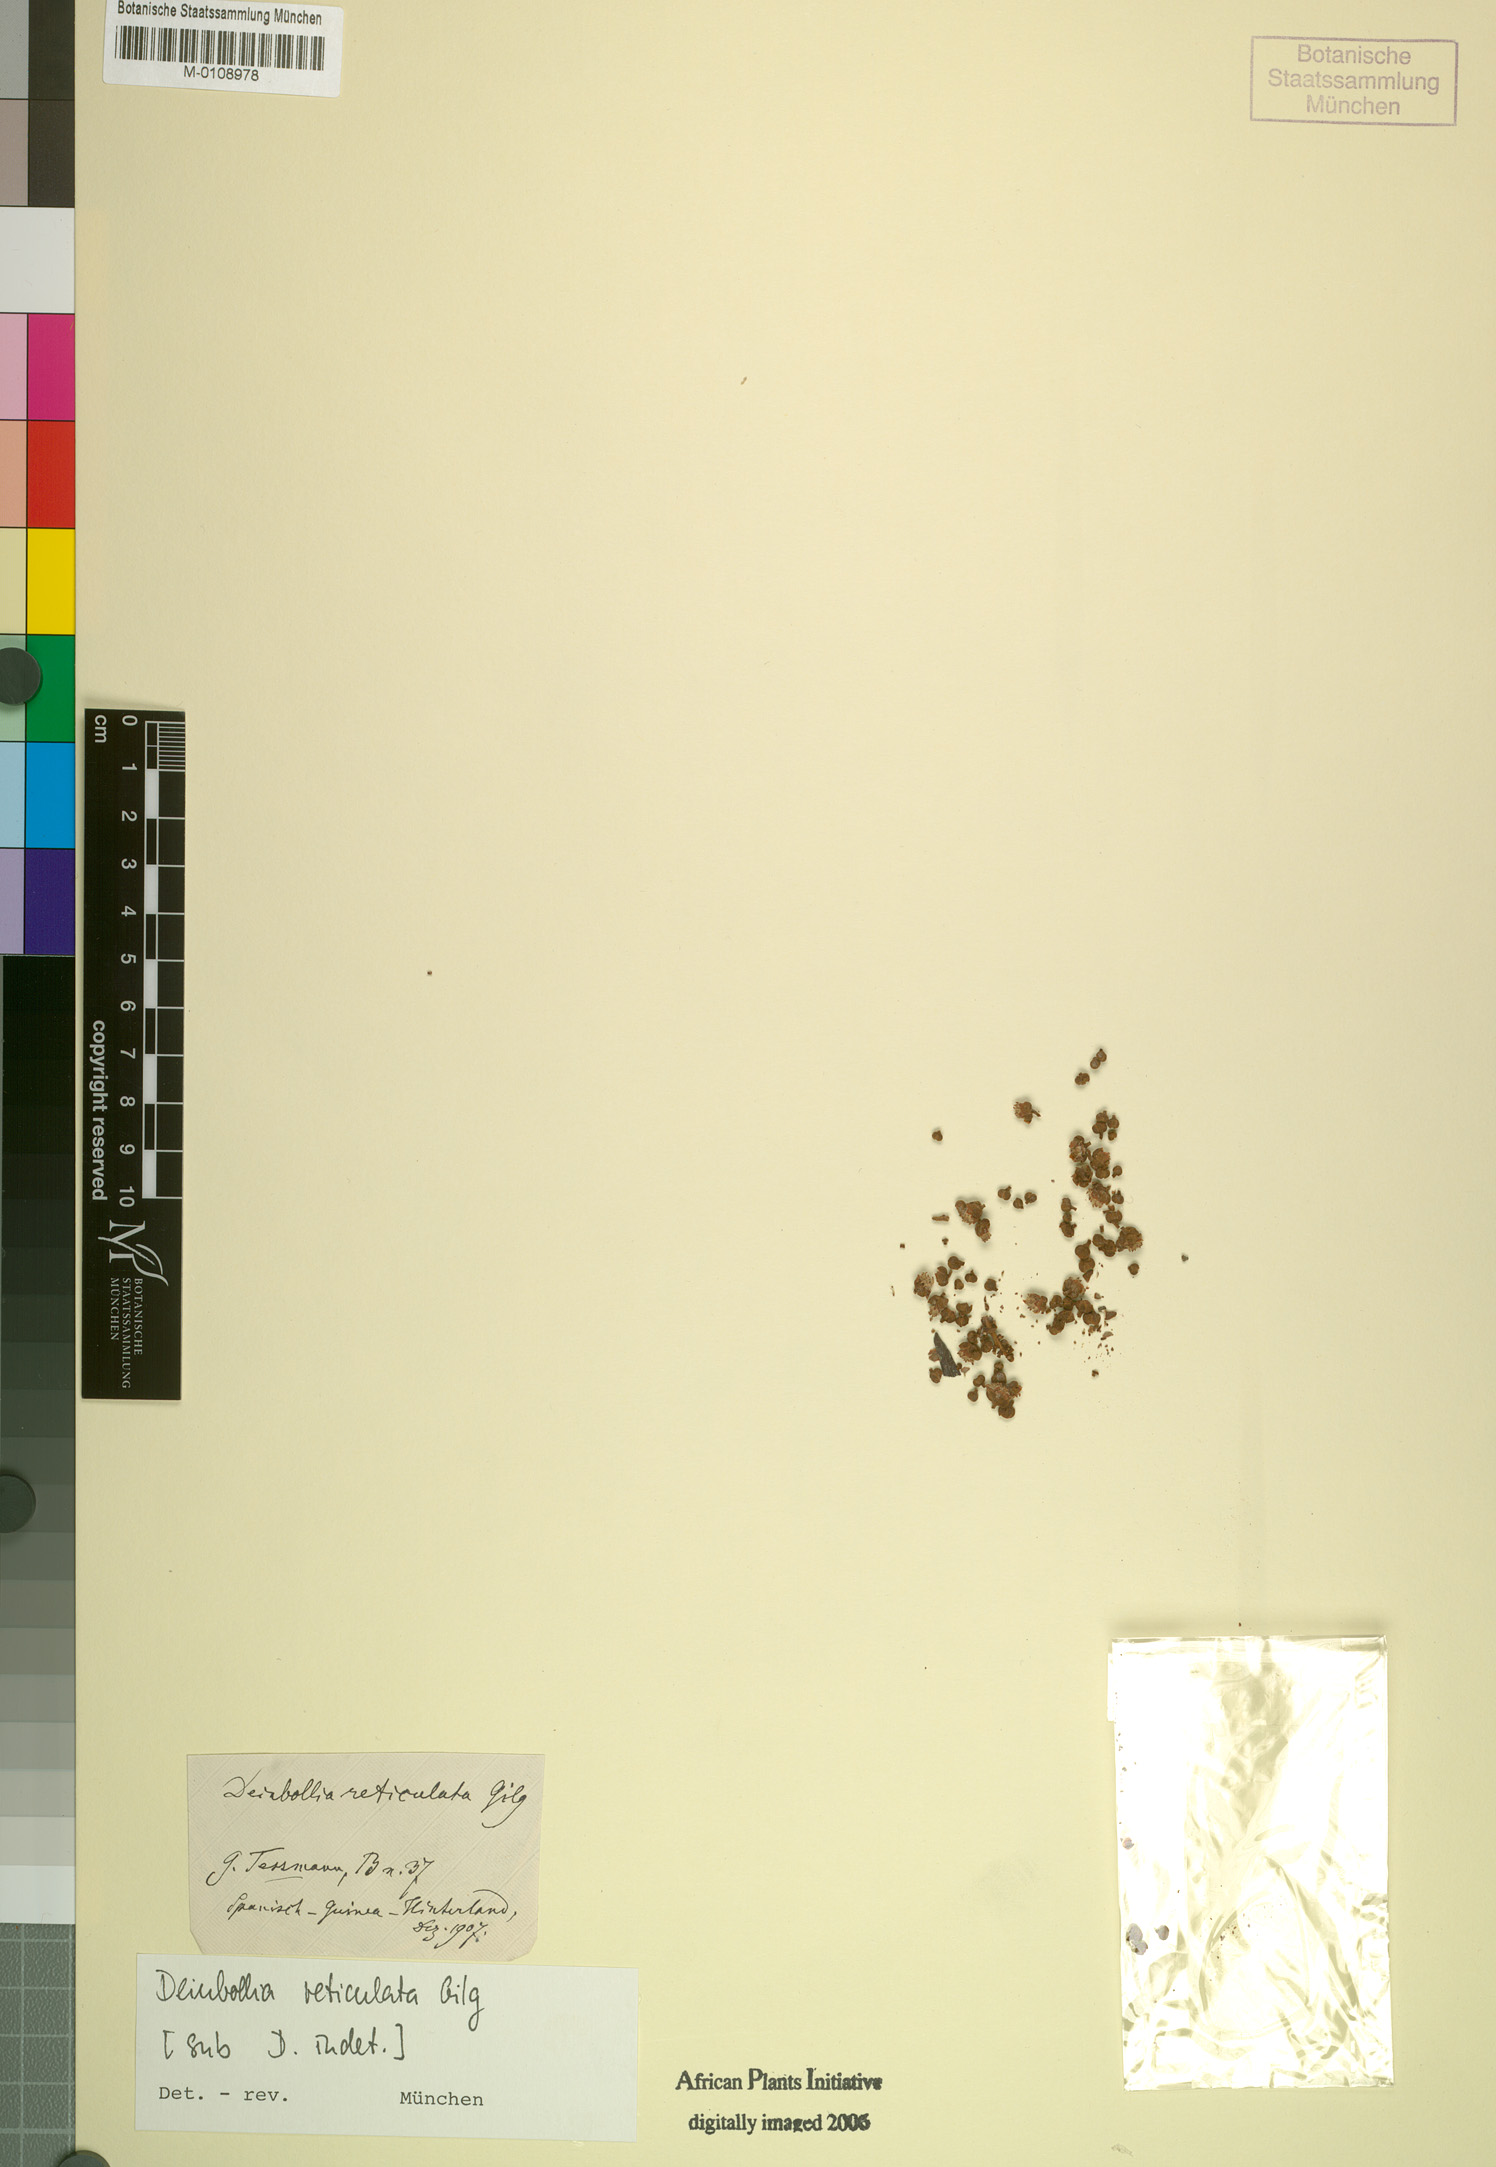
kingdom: Plantae
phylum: Tracheophyta
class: Magnoliopsida
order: Sapindales
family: Sapindaceae
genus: Deinbollia
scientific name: Deinbollia reticulata
